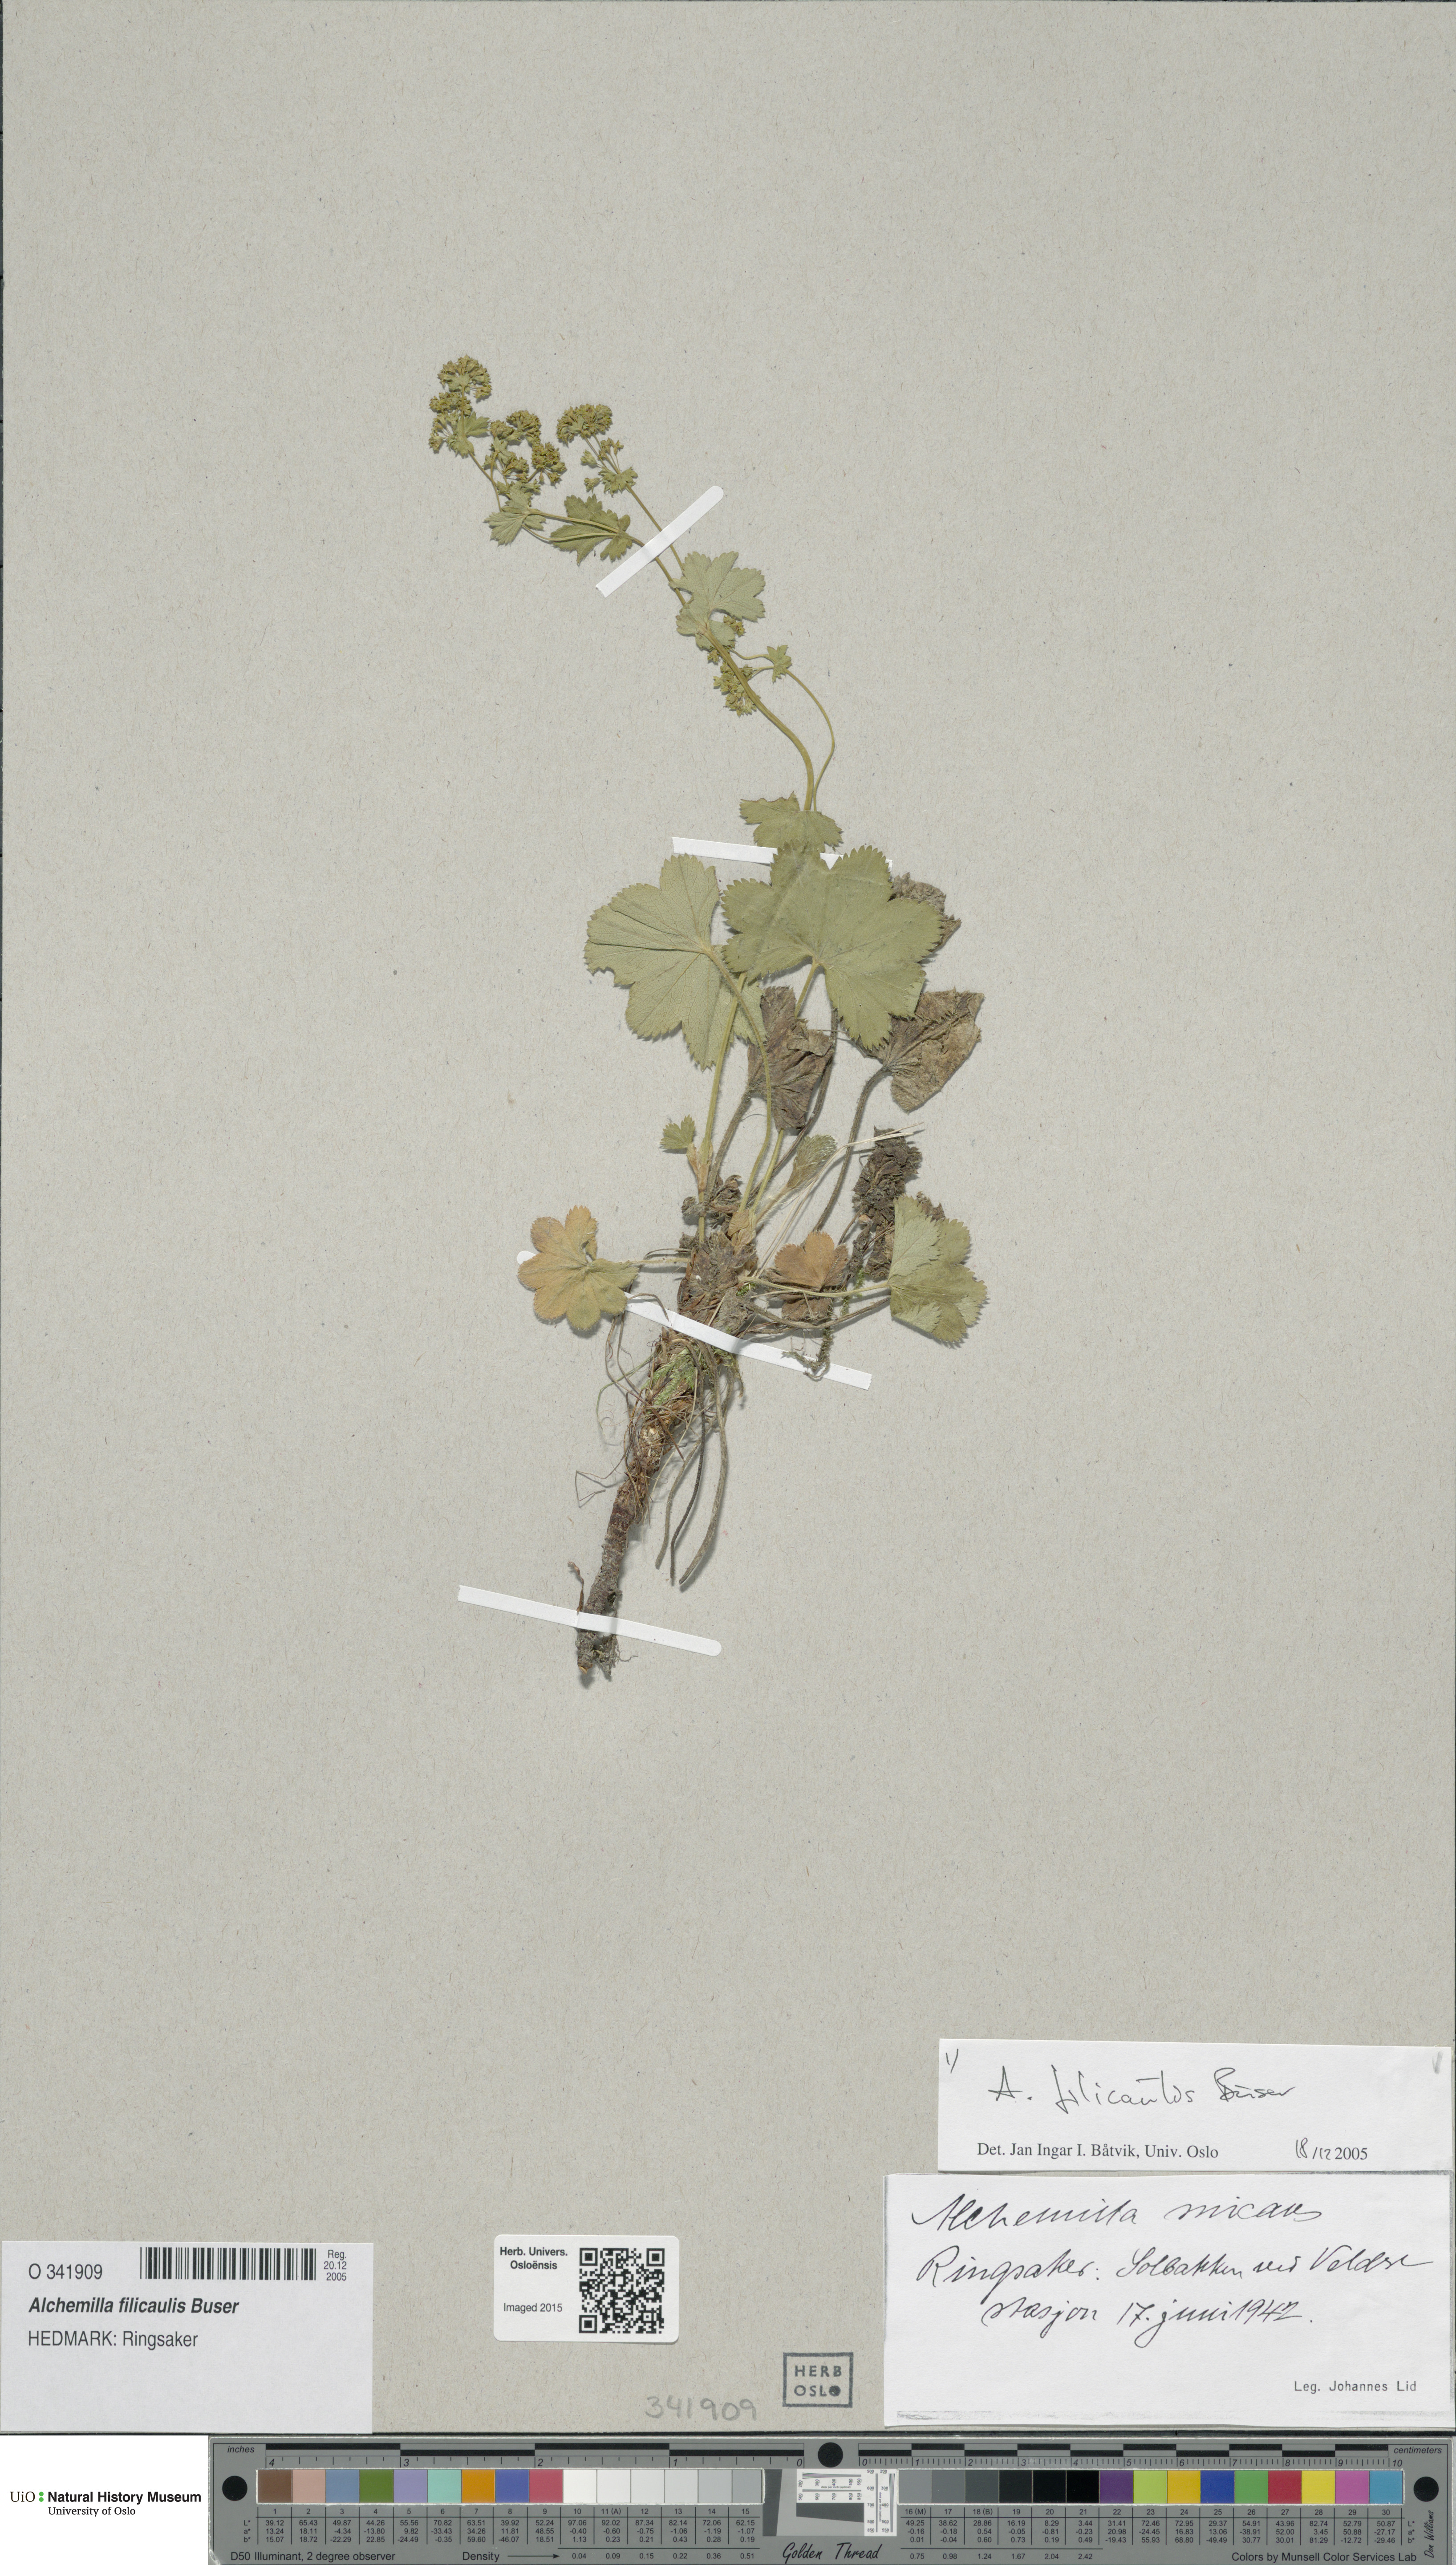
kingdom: Plantae
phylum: Tracheophyta
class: Magnoliopsida
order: Rosales
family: Rosaceae
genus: Alchemilla
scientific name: Alchemilla filicaulis
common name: Hairy lady's-mantle
